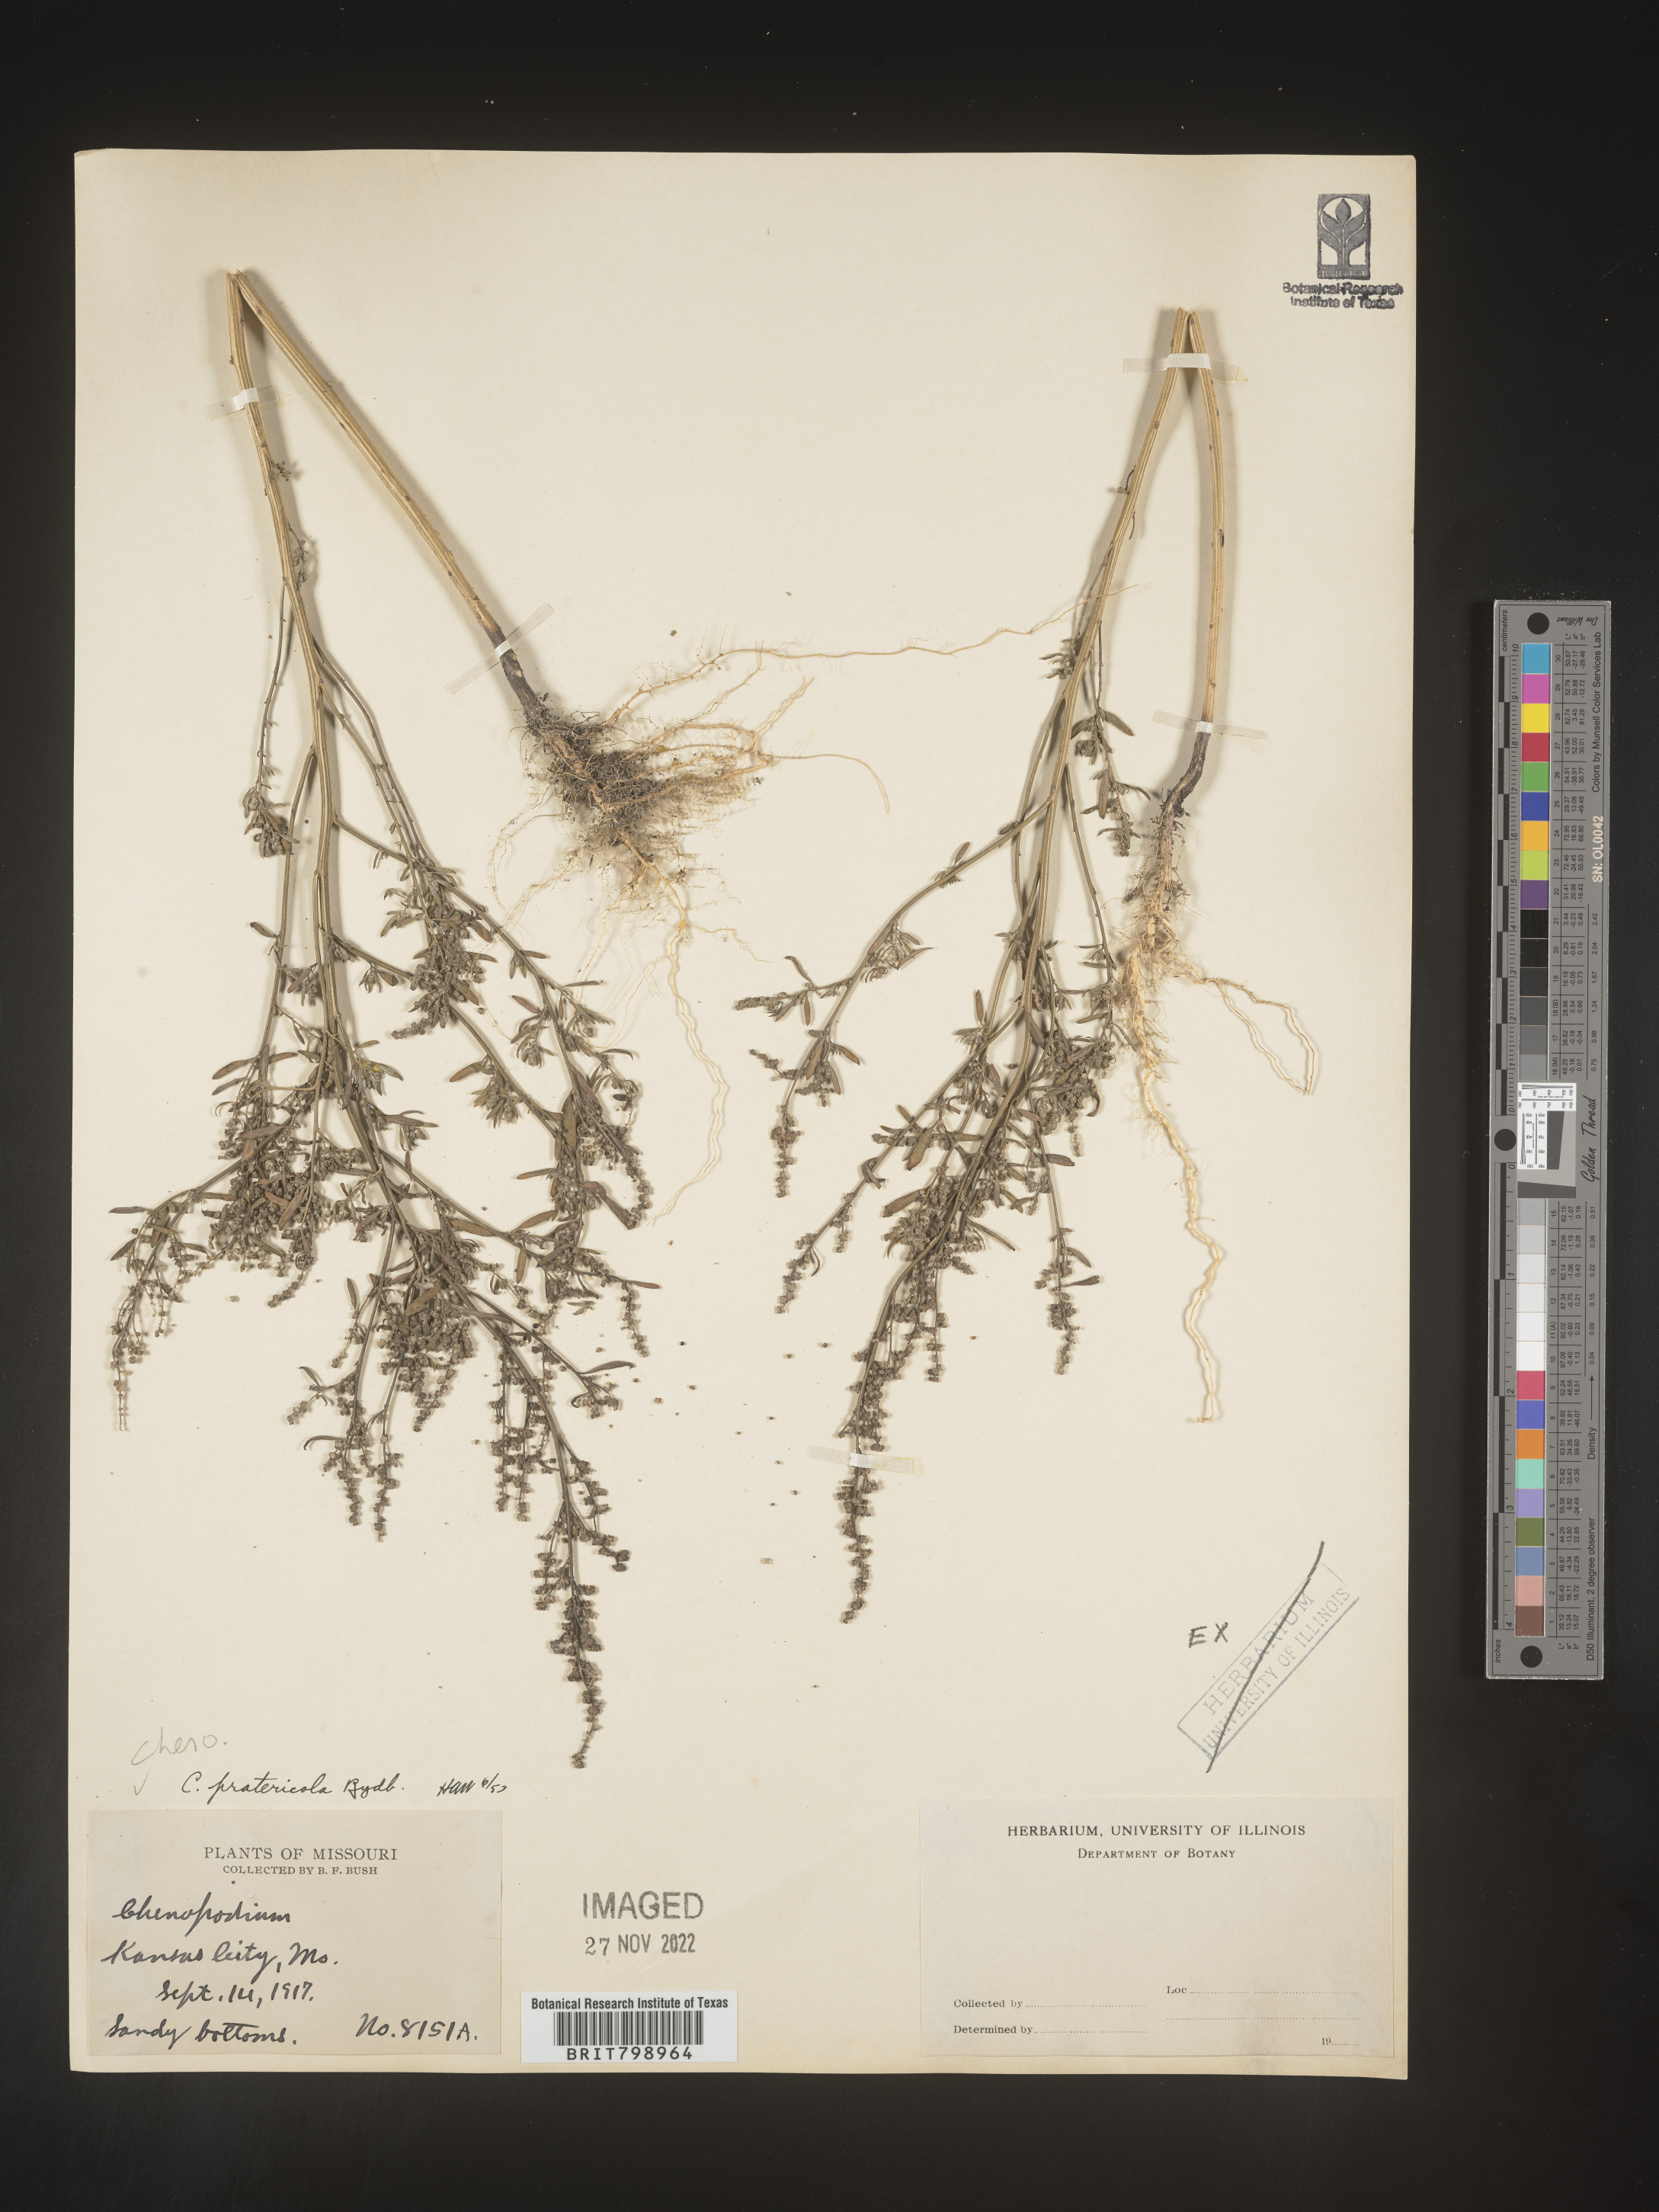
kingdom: Plantae
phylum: Tracheophyta
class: Magnoliopsida
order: Caryophyllales
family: Amaranthaceae
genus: Chenopodium
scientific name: Chenopodium pratericola
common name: Desert goosefoot
